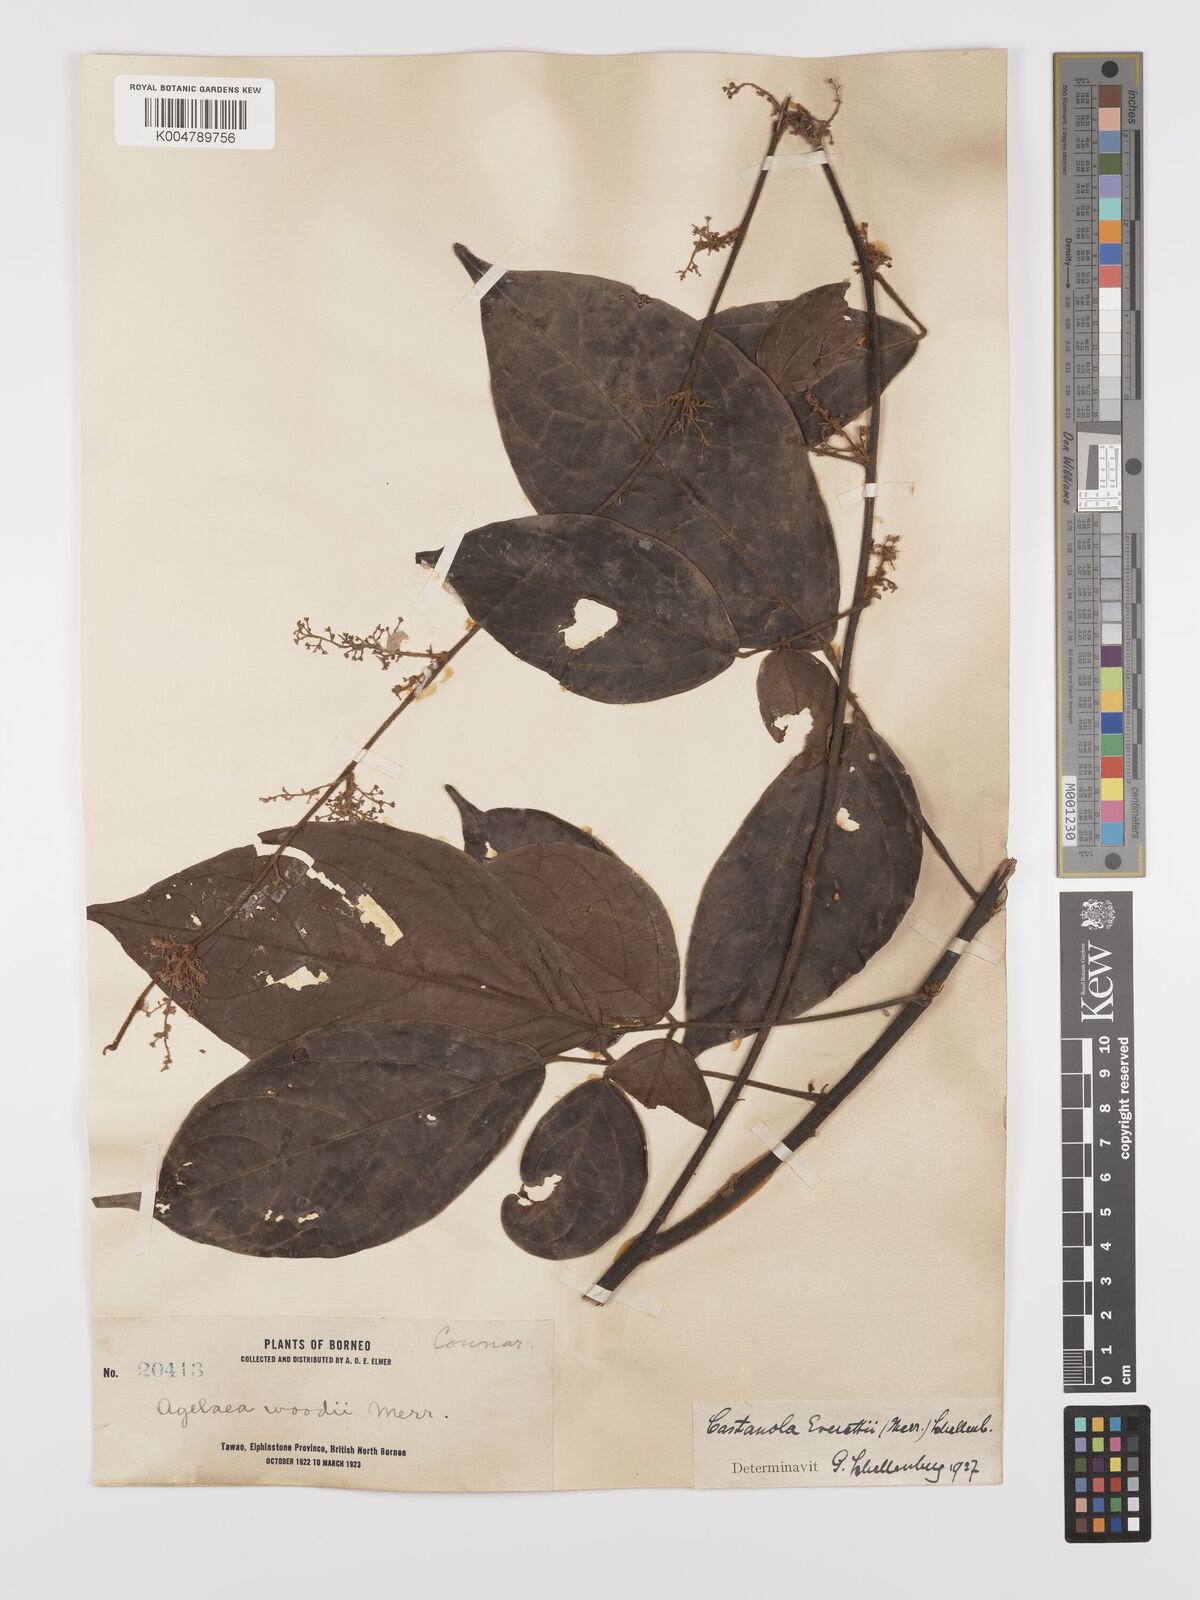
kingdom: Plantae
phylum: Tracheophyta
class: Magnoliopsida
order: Oxalidales
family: Connaraceae
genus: Agelaea
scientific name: Agelaea borneensis
